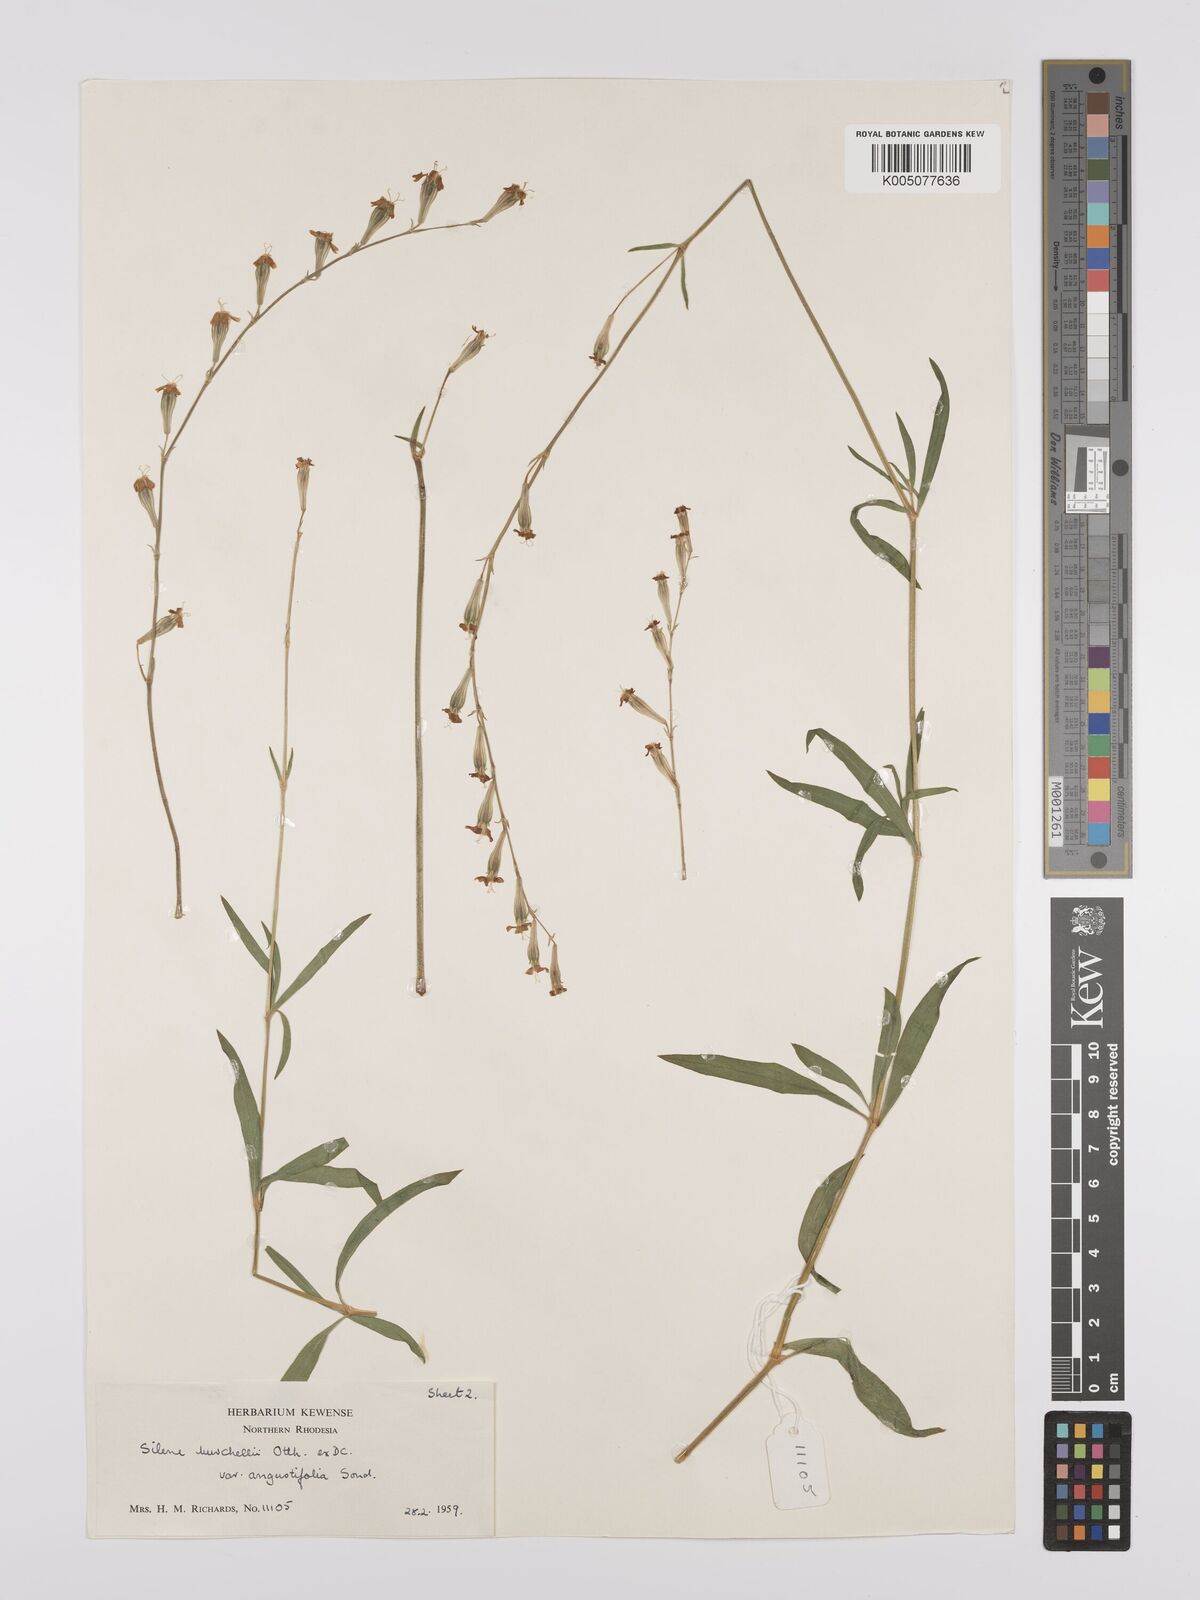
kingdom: Plantae
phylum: Tracheophyta
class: Magnoliopsida
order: Caryophyllales
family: Caryophyllaceae
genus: Silene
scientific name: Silene burchellii
